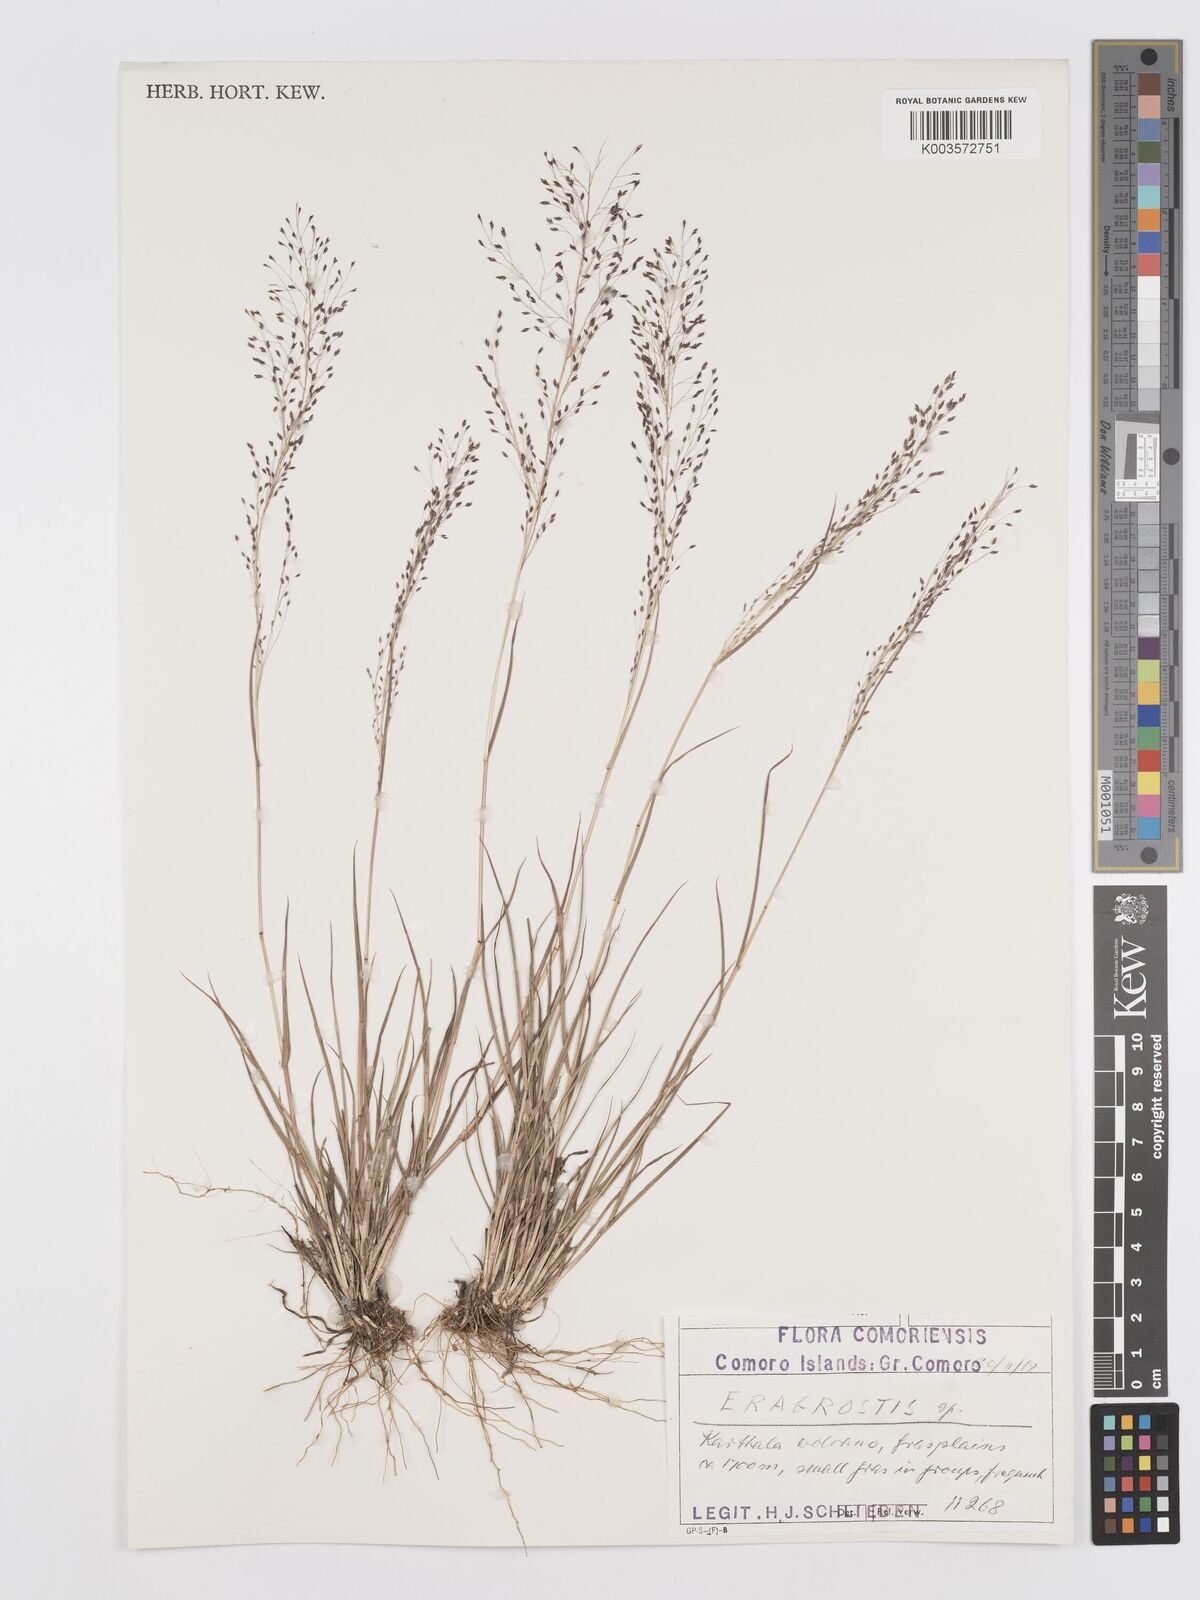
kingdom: Plantae
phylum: Tracheophyta
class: Liliopsida
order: Poales
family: Poaceae
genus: Eragrostis
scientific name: Eragrostis
